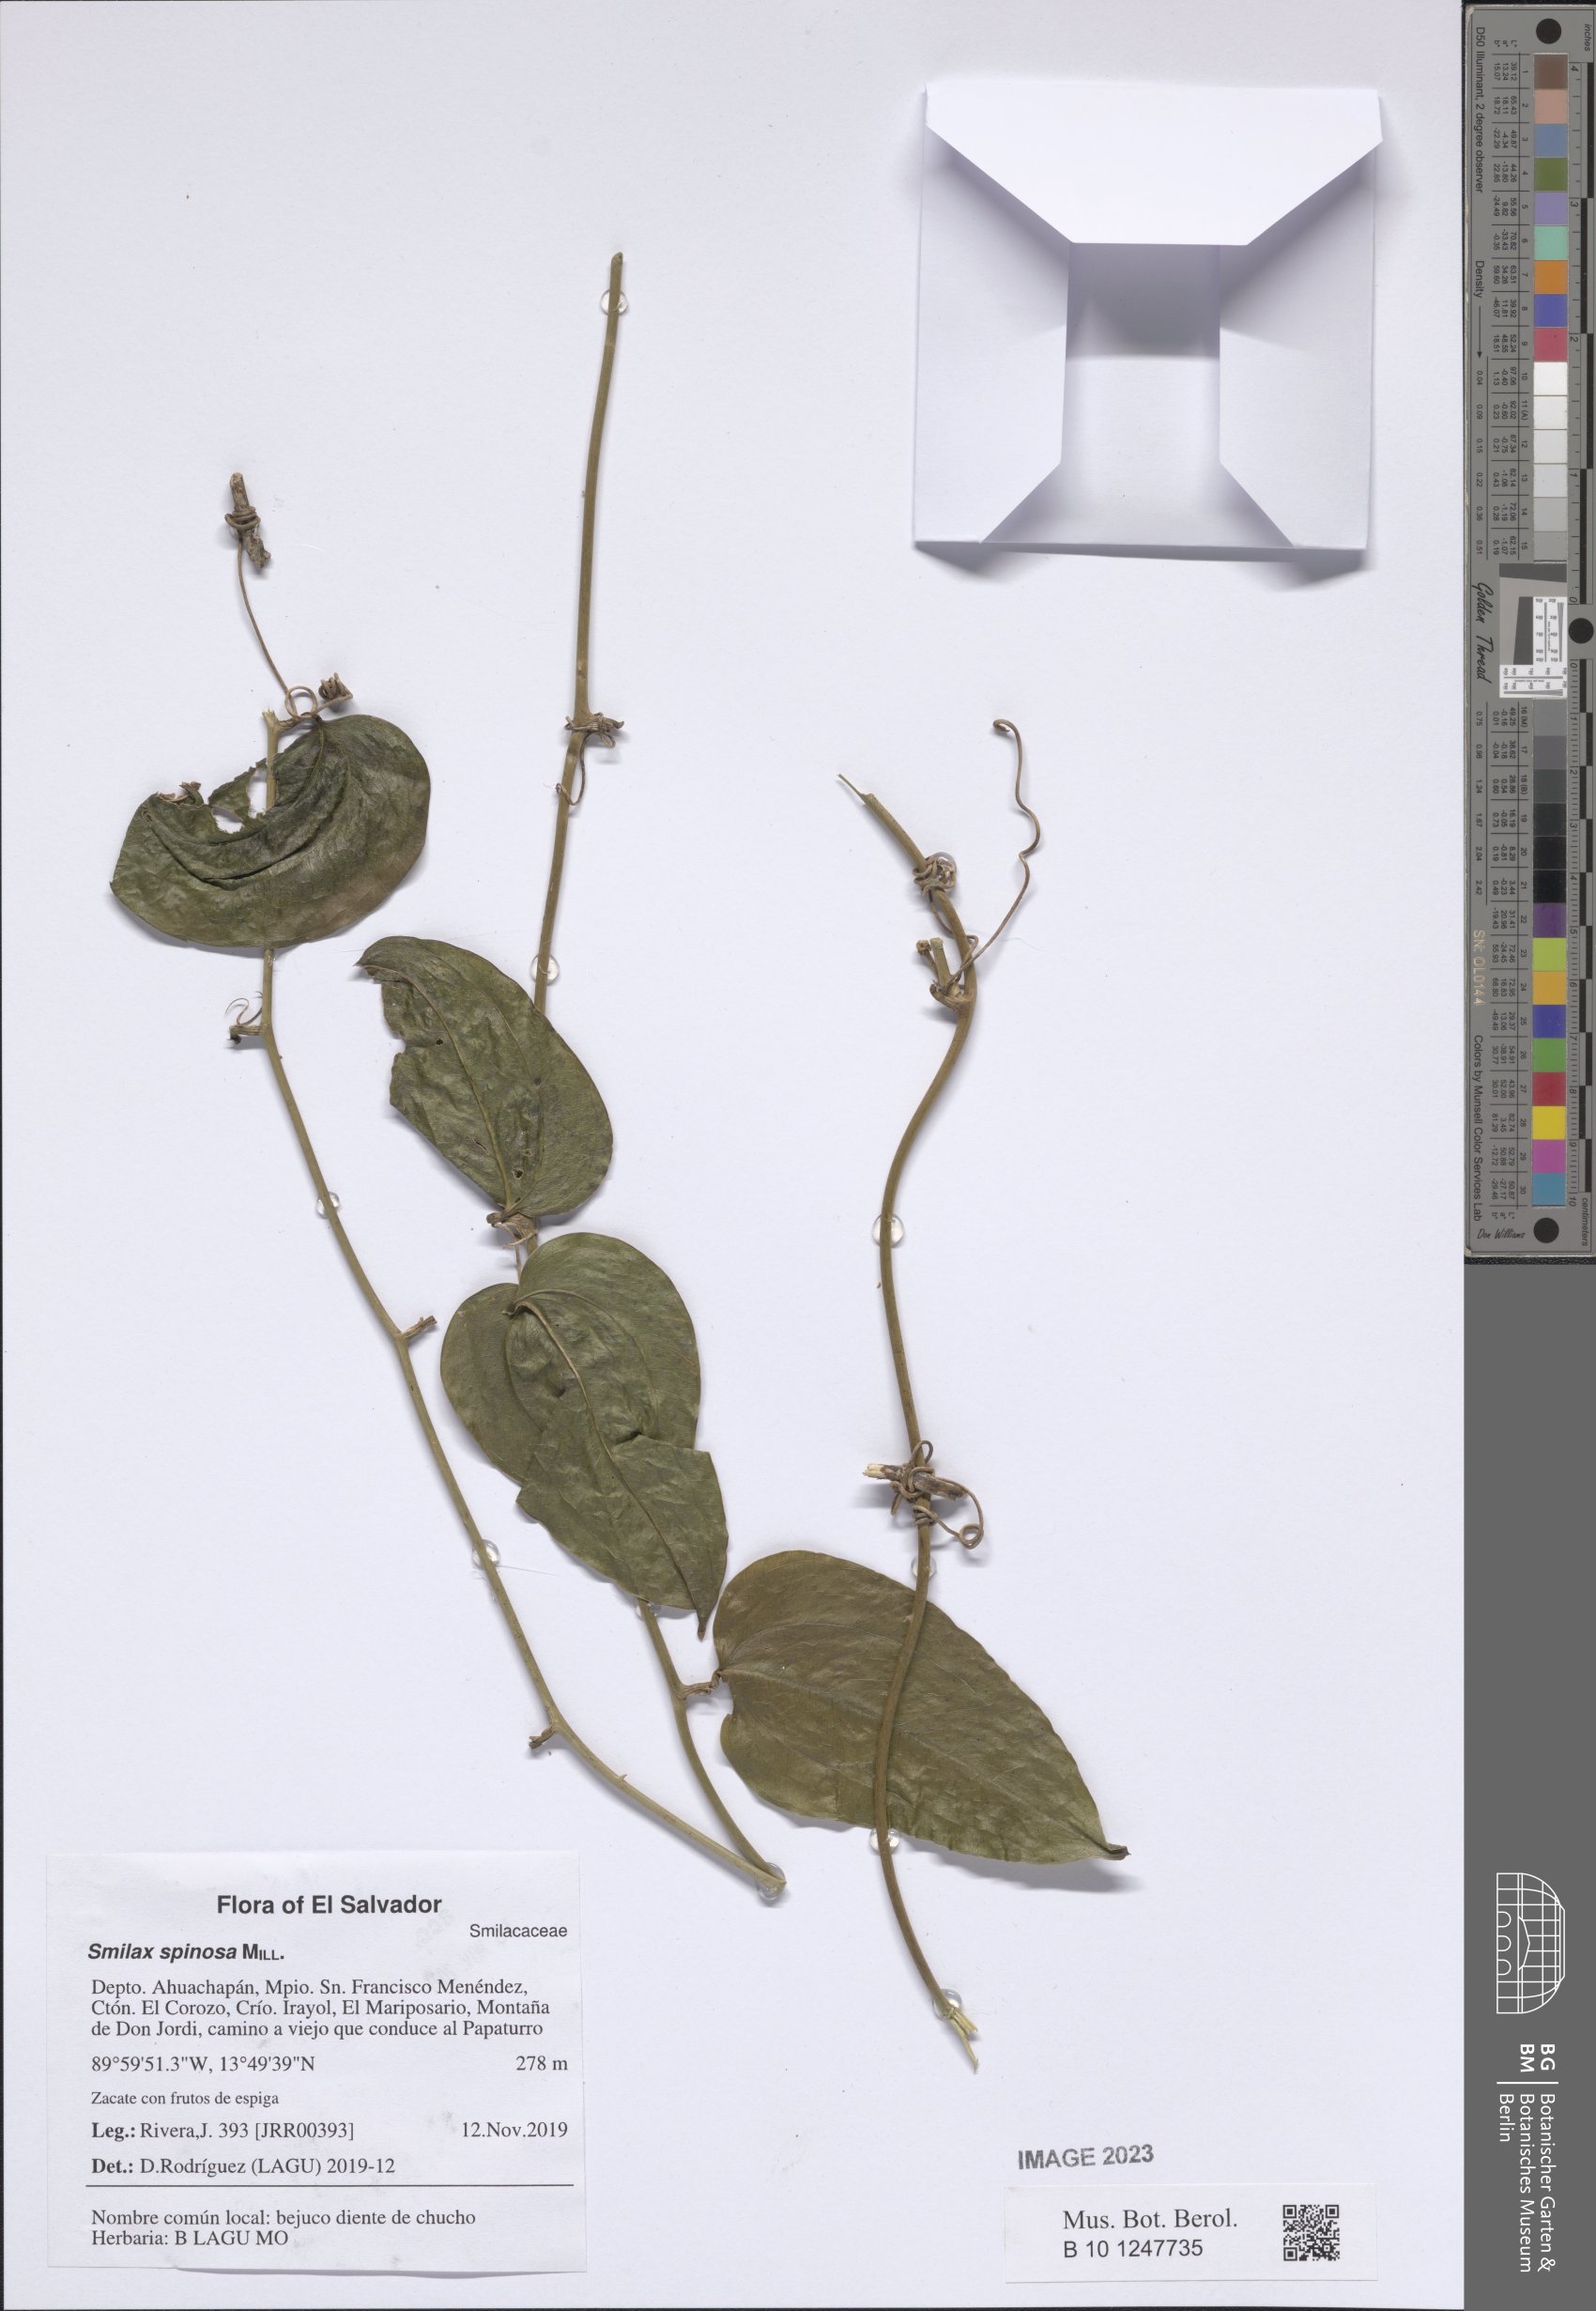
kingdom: Plantae
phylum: Tracheophyta
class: Liliopsida
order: Liliales
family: Smilacaceae
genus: Smilax
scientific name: Smilax spinosa
